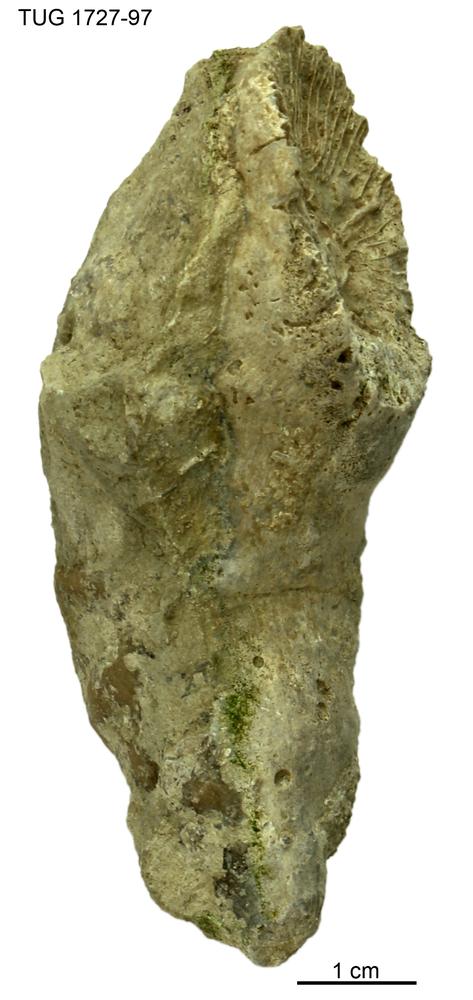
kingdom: Animalia
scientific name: Animalia
